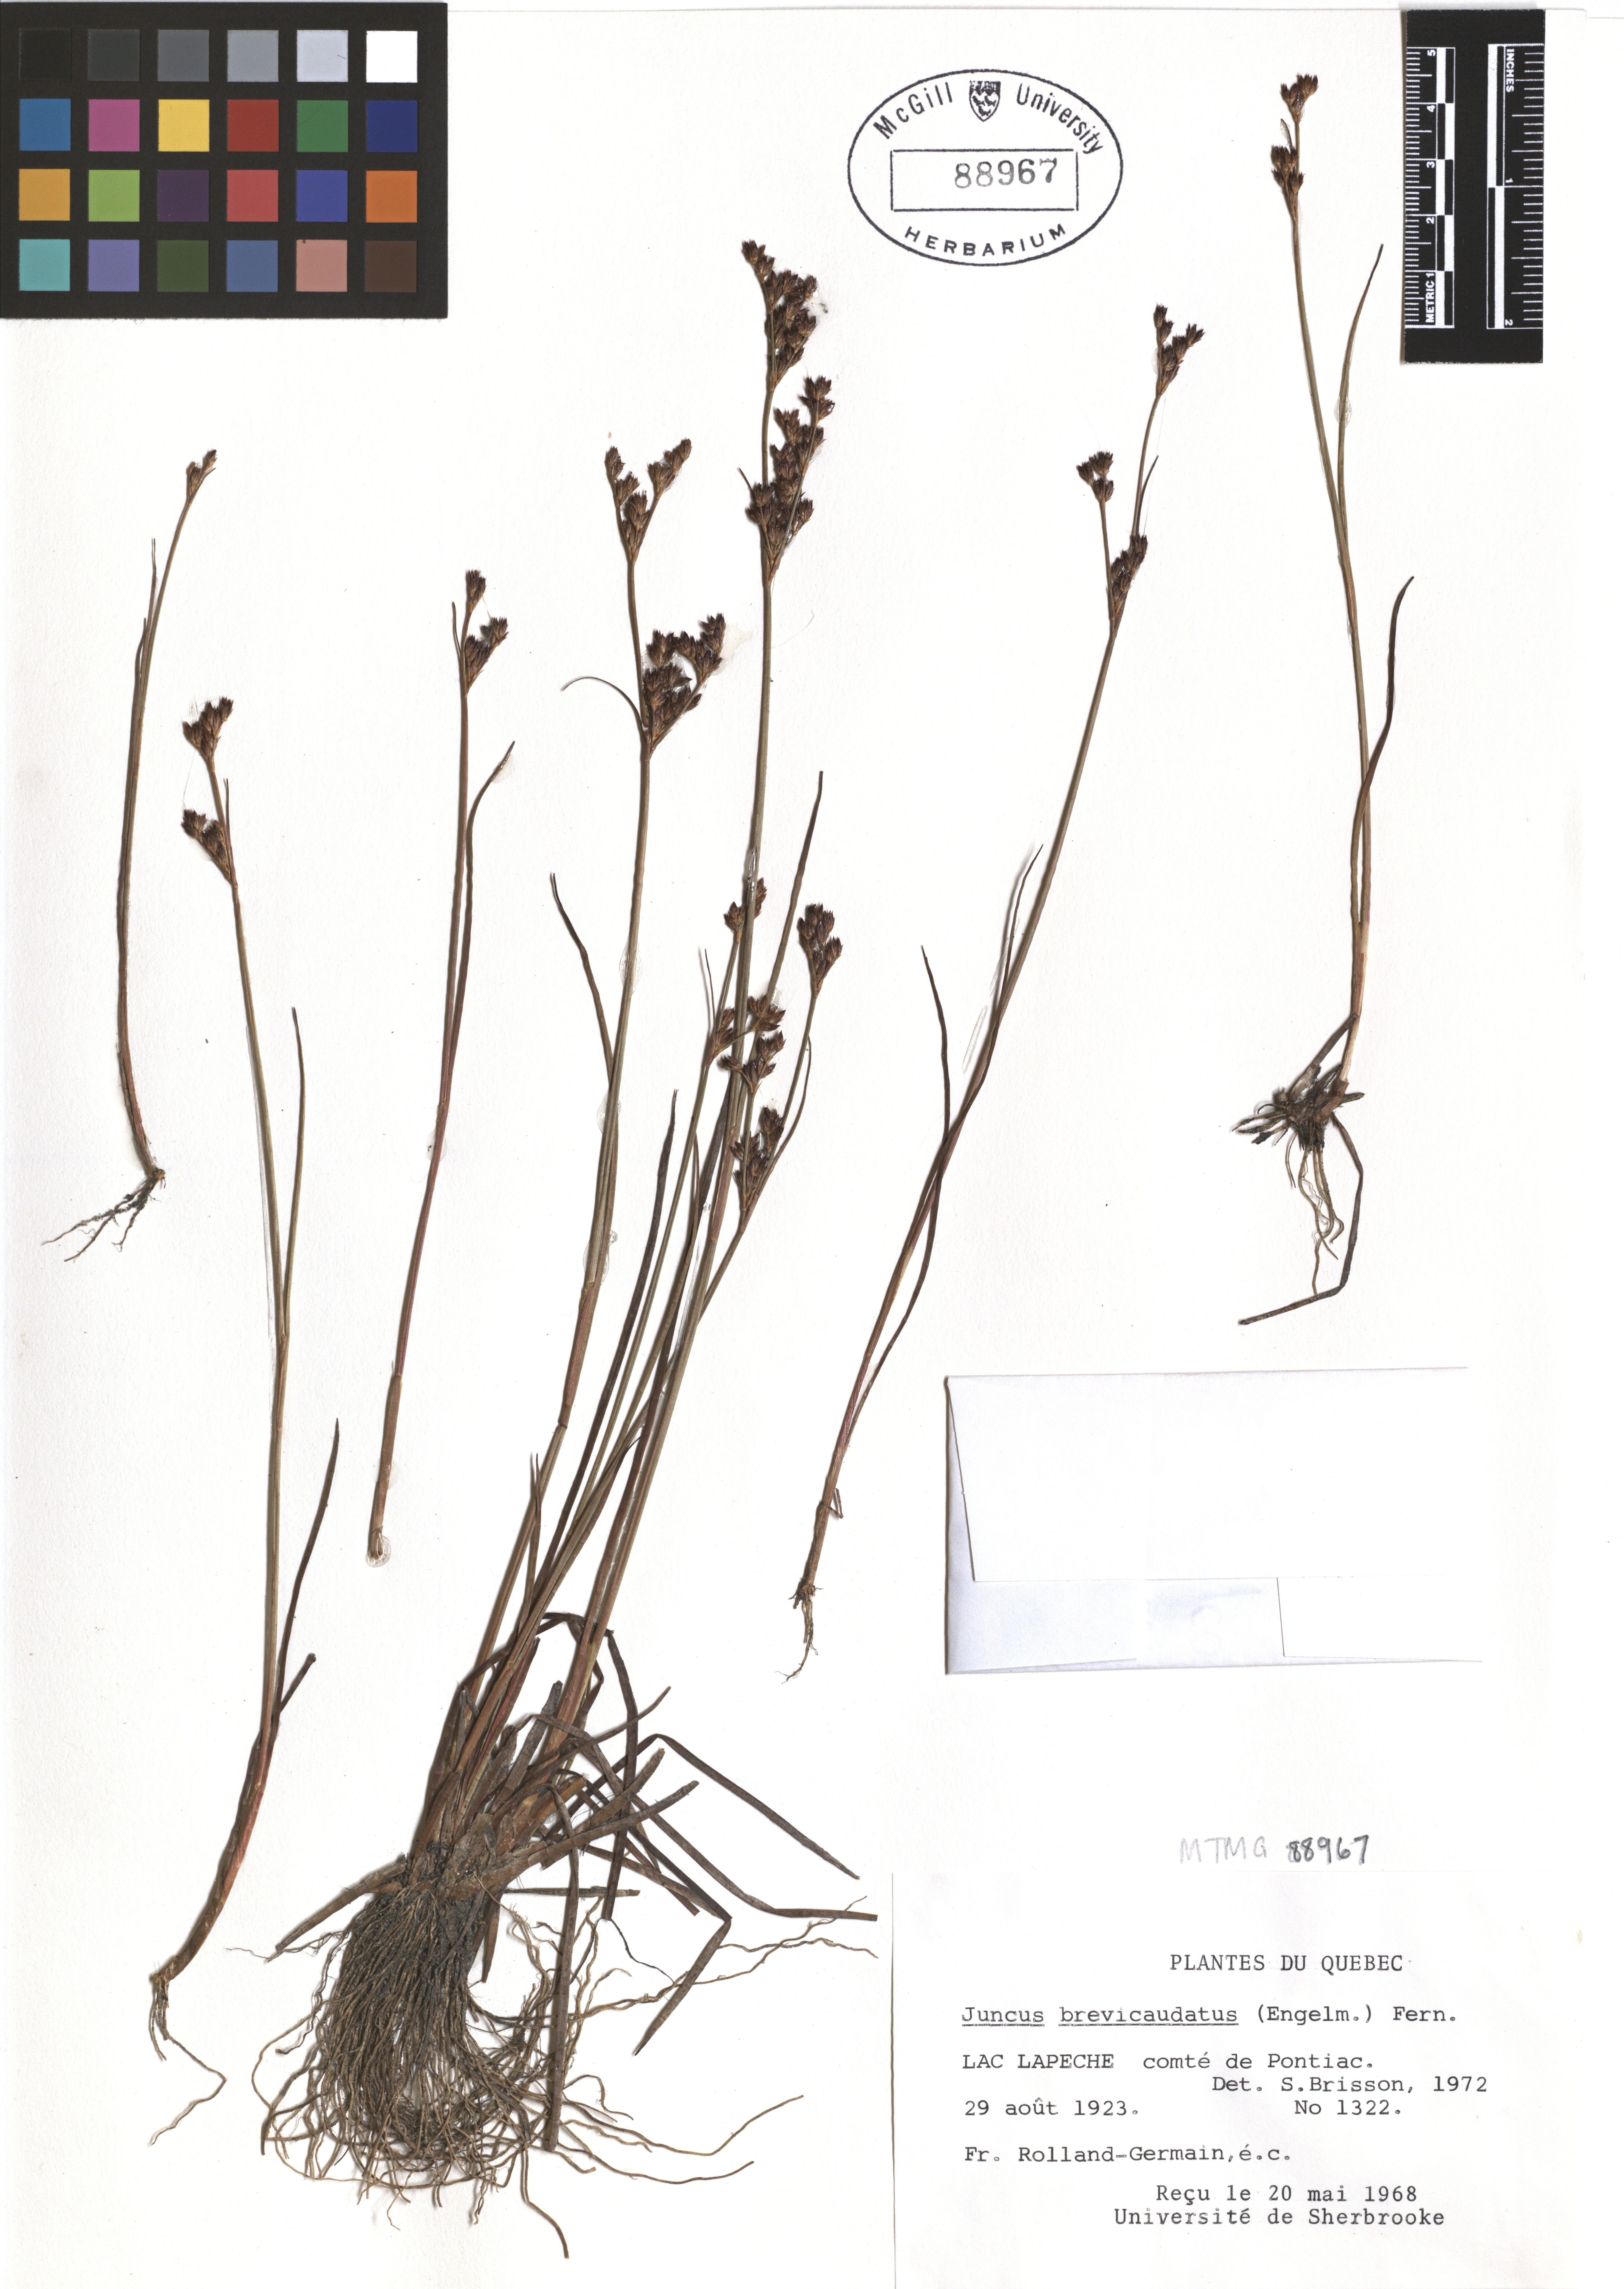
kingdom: Plantae
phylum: Tracheophyta
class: Liliopsida
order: Poales
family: Juncaceae
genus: Juncus
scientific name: Juncus brevicaudatus
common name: Narrow-panicle rush
